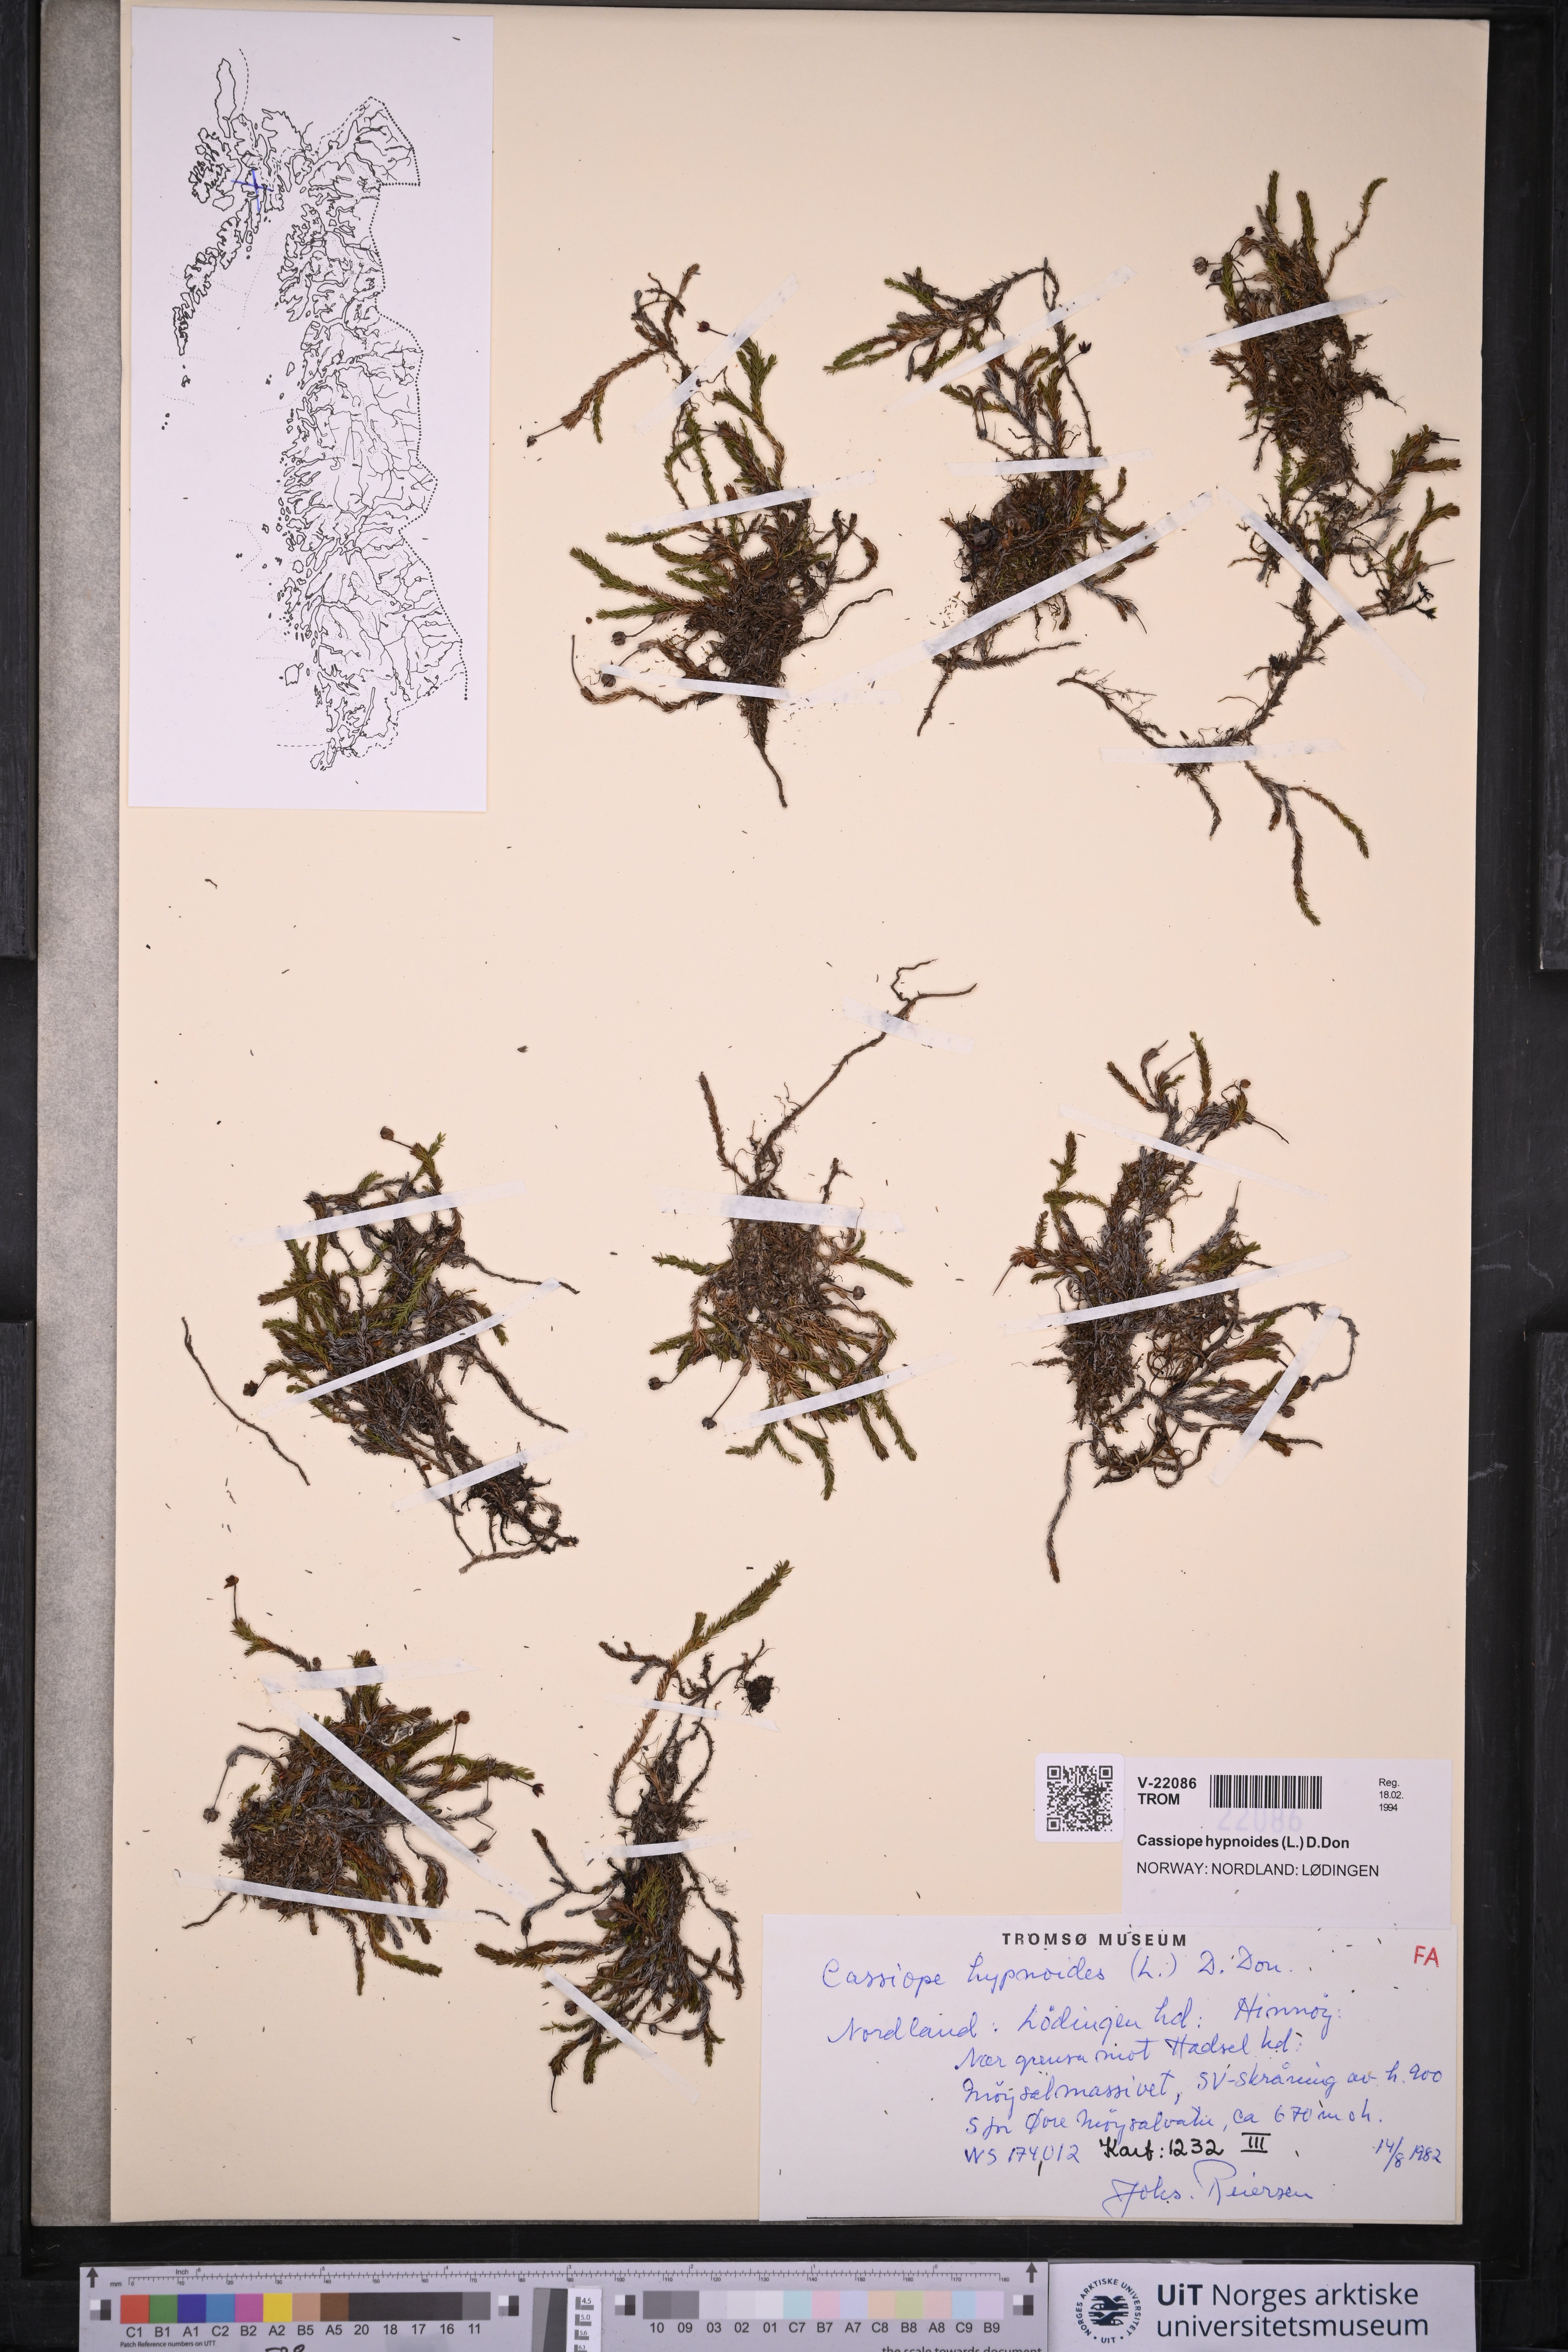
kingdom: Plantae
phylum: Tracheophyta
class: Magnoliopsida
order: Ericales
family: Ericaceae
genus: Harrimanella
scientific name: Harrimanella hypnoides
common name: Moss bell heather
